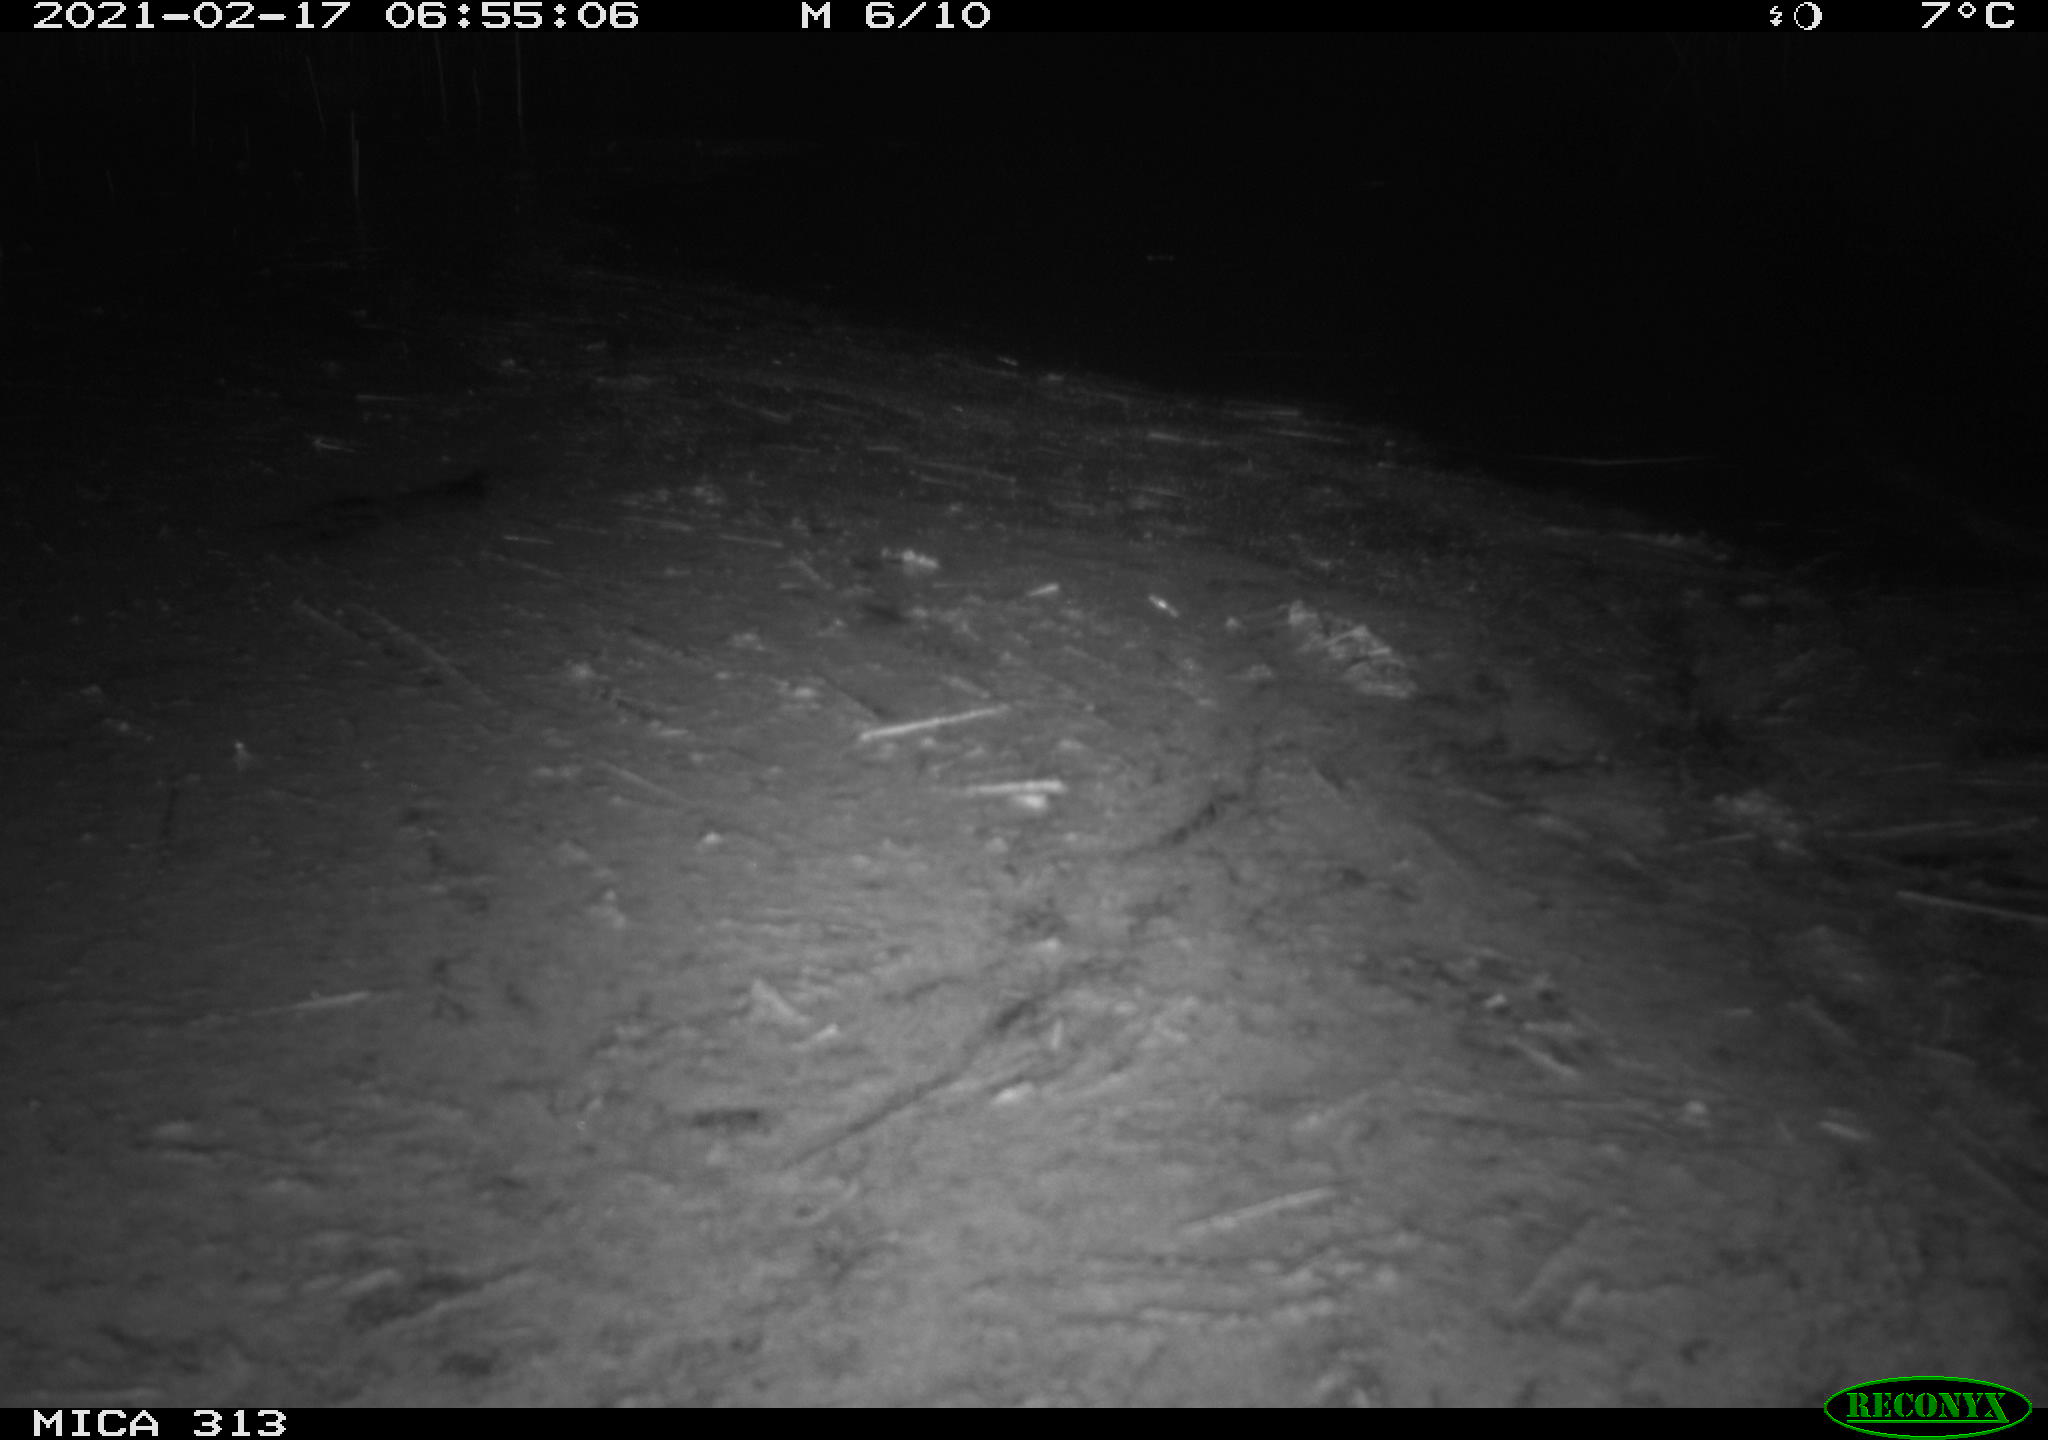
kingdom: Animalia
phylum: Chordata
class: Aves
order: Gruiformes
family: Rallidae
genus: Gallinula
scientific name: Gallinula chloropus
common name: Common moorhen
